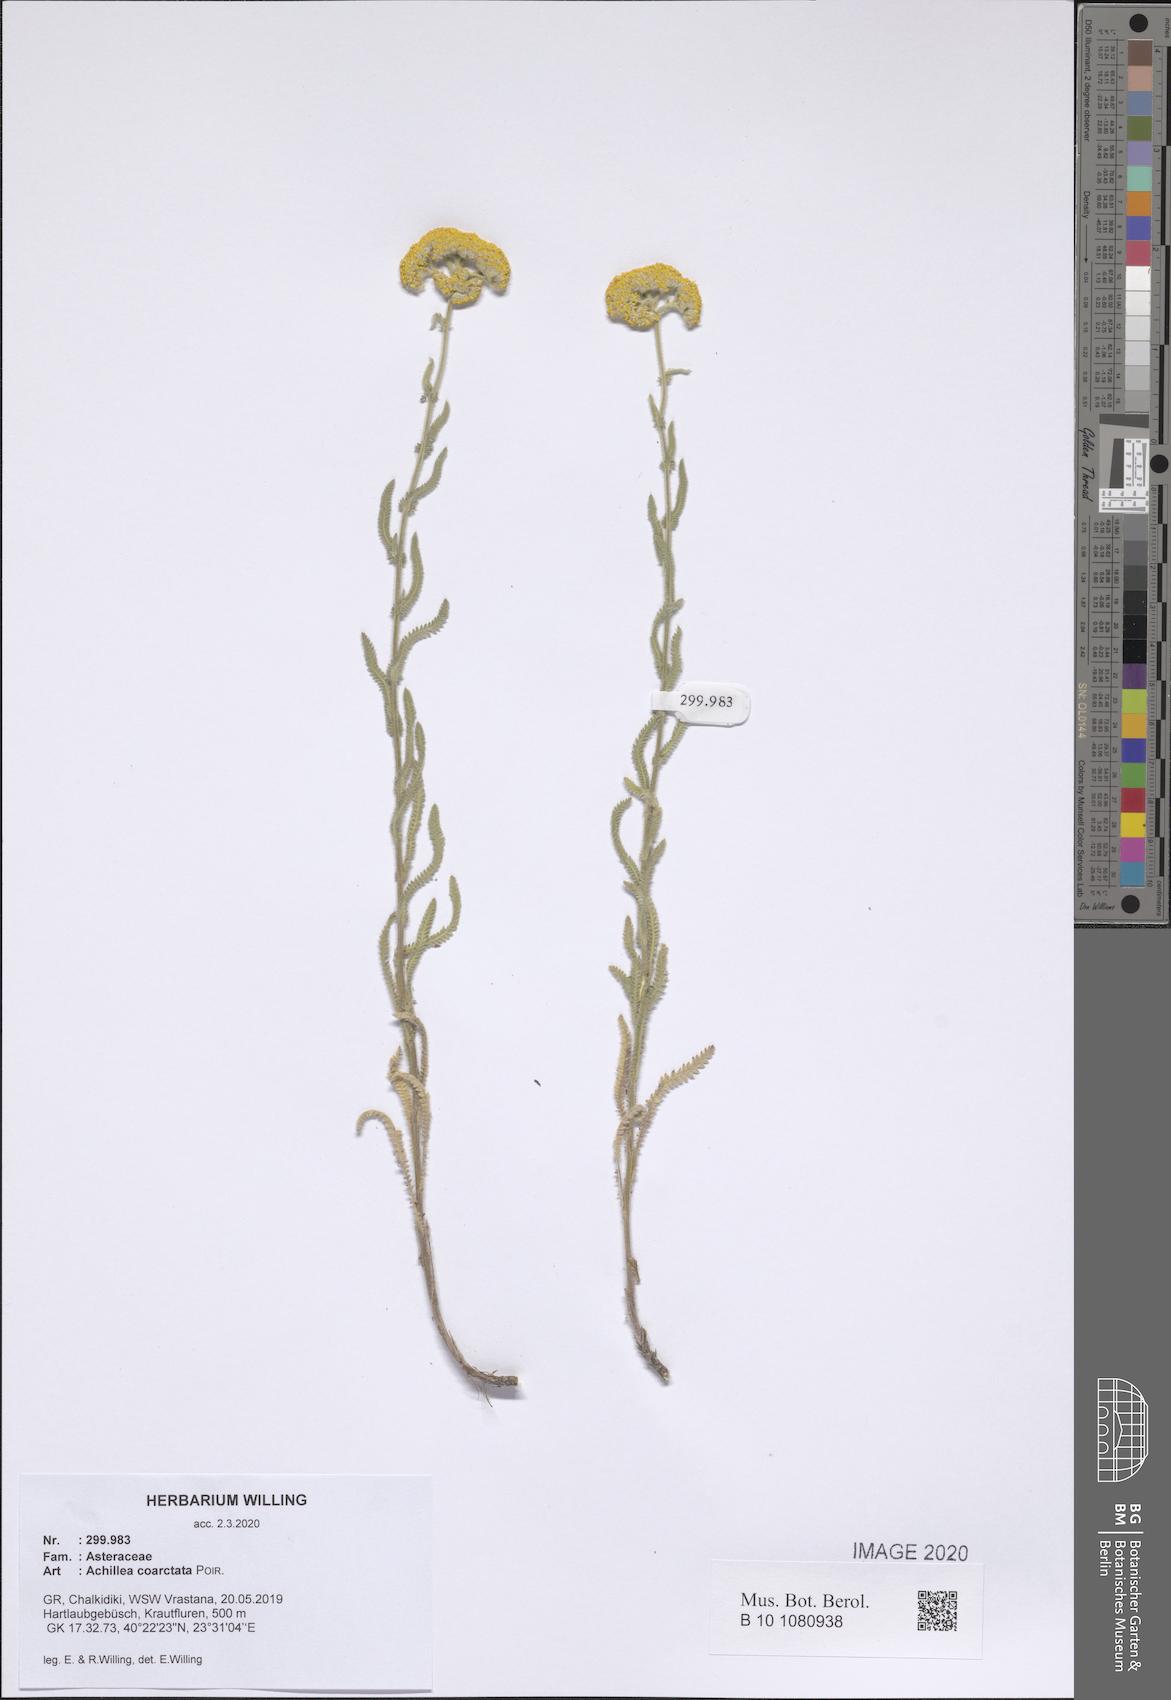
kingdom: Plantae
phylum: Tracheophyta
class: Magnoliopsida
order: Asterales
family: Asteraceae
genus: Achillea
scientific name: Achillea coarctata
